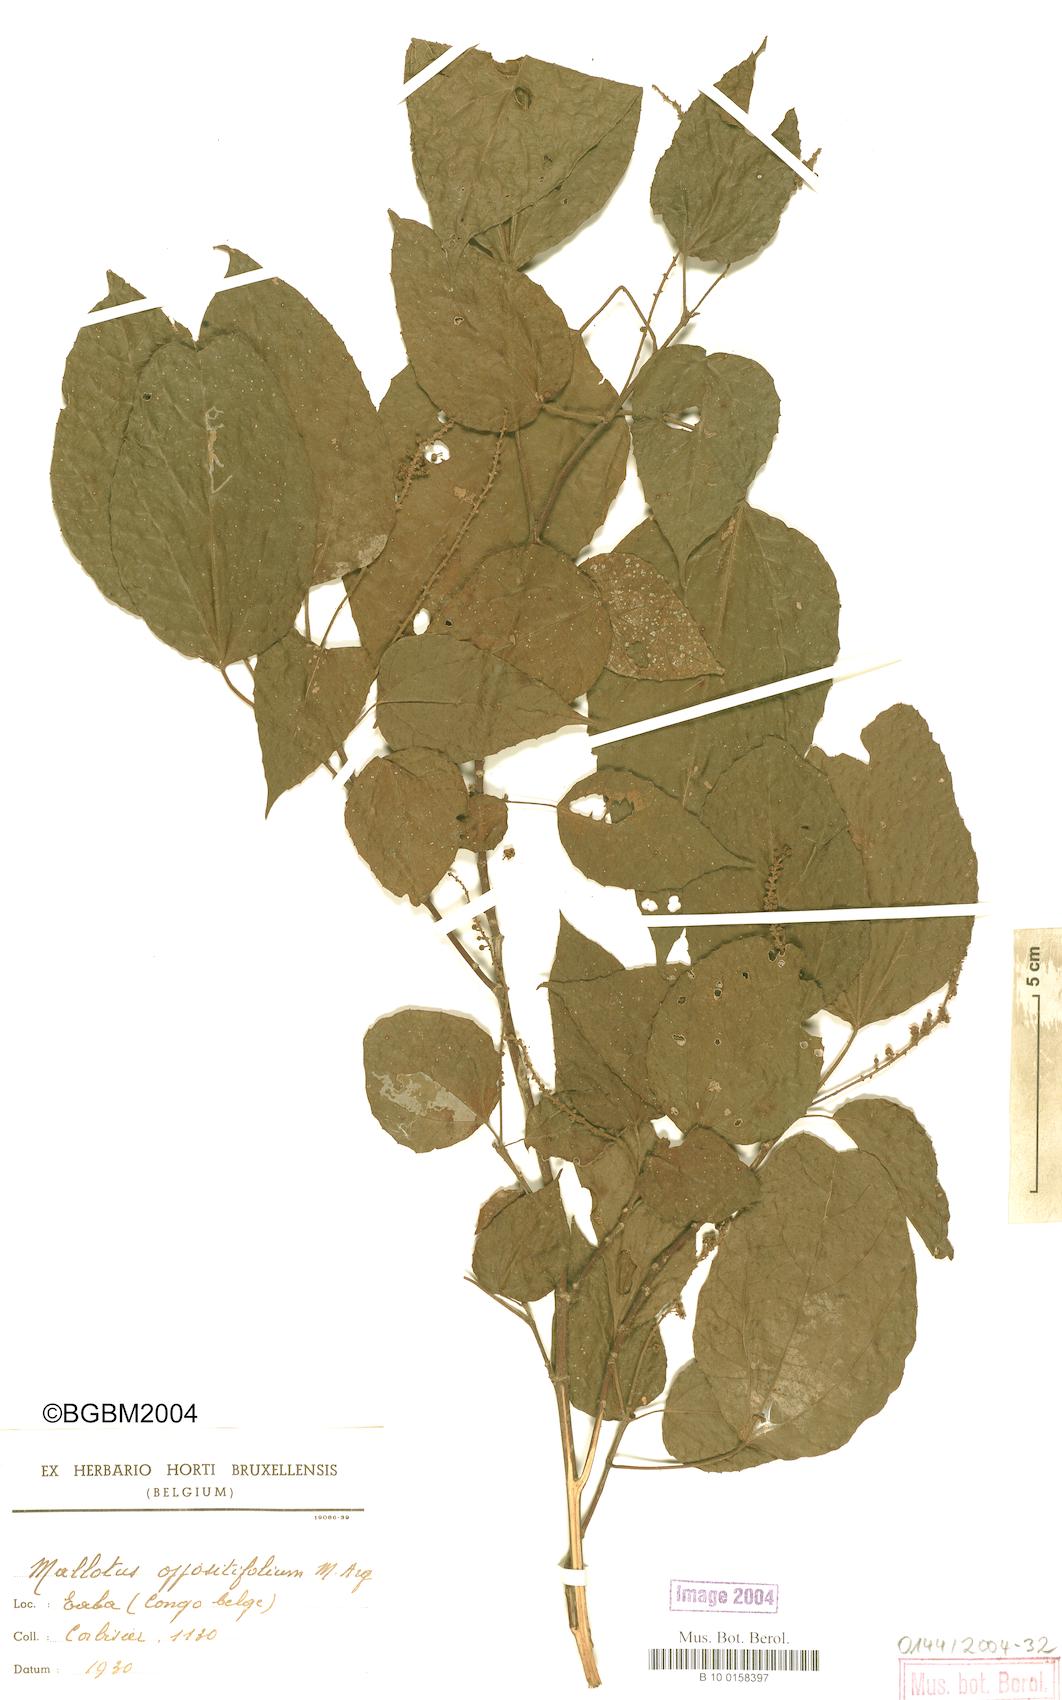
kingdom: Plantae
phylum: Tracheophyta
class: Magnoliopsida
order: Malpighiales
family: Euphorbiaceae
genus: Mallotus
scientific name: Mallotus oppositifolius
